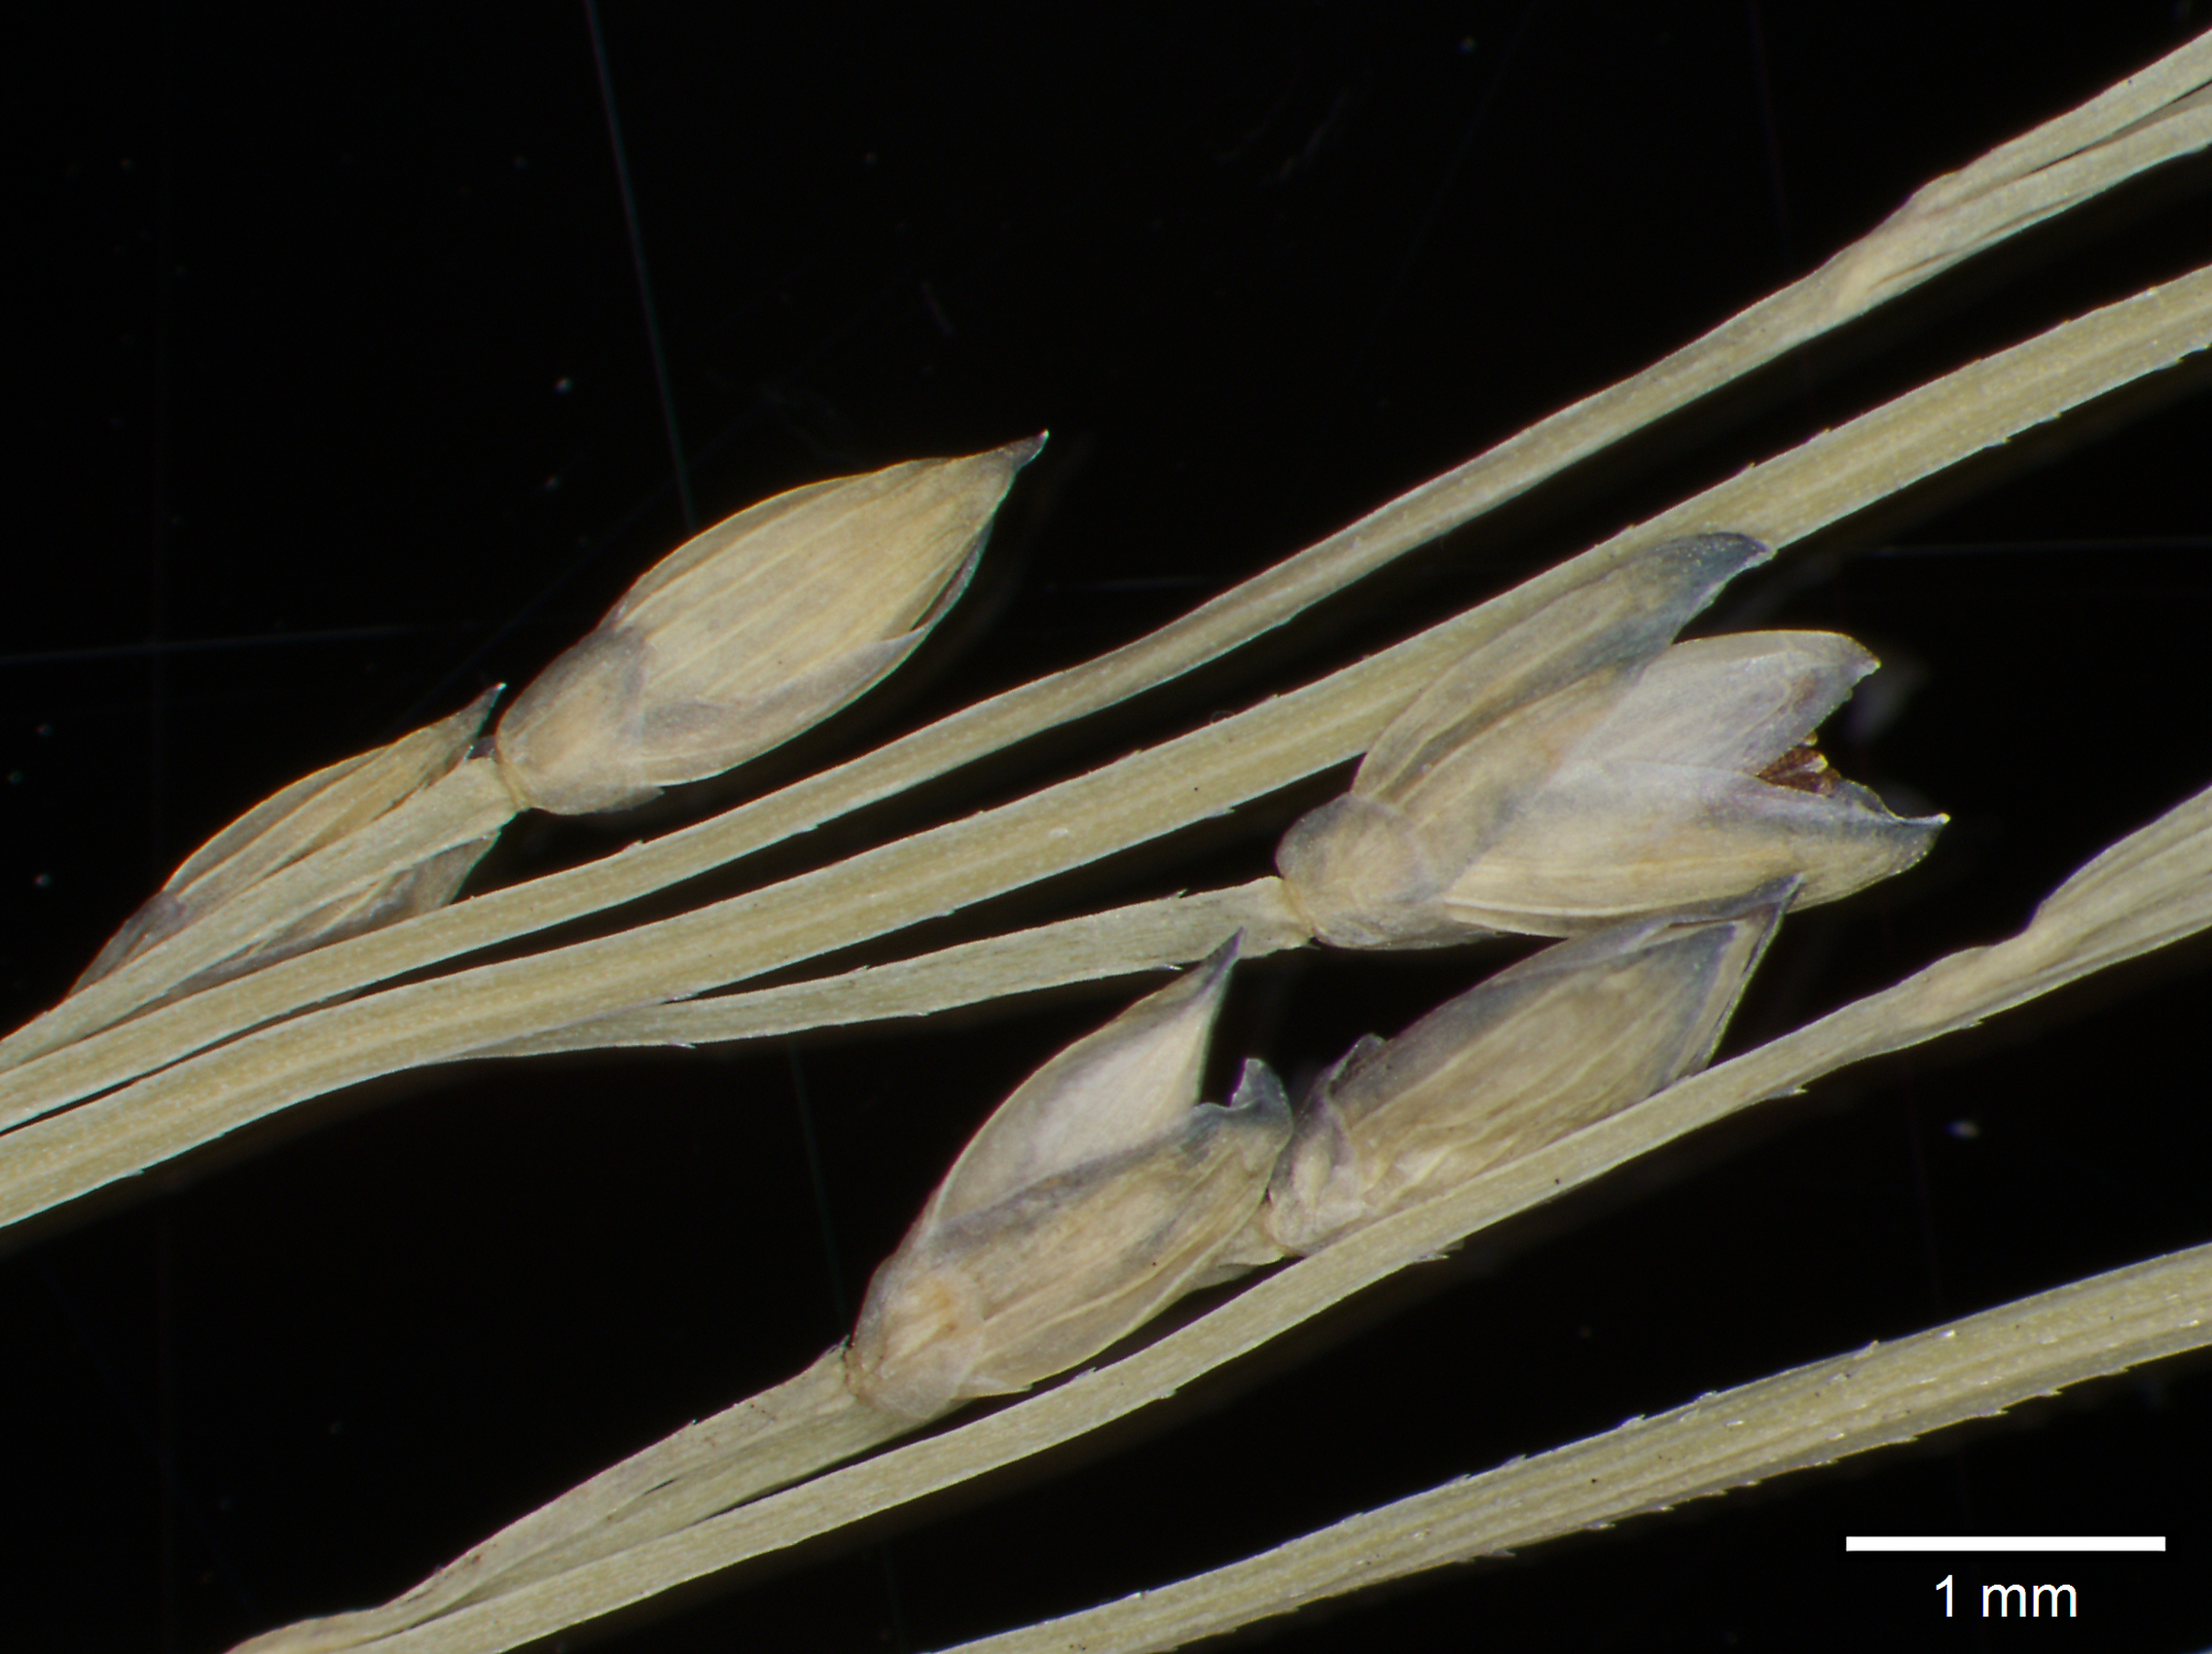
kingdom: Plantae
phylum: Tracheophyta
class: Liliopsida
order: Poales
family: Poaceae
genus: Panicum
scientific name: Panicum lacustre
